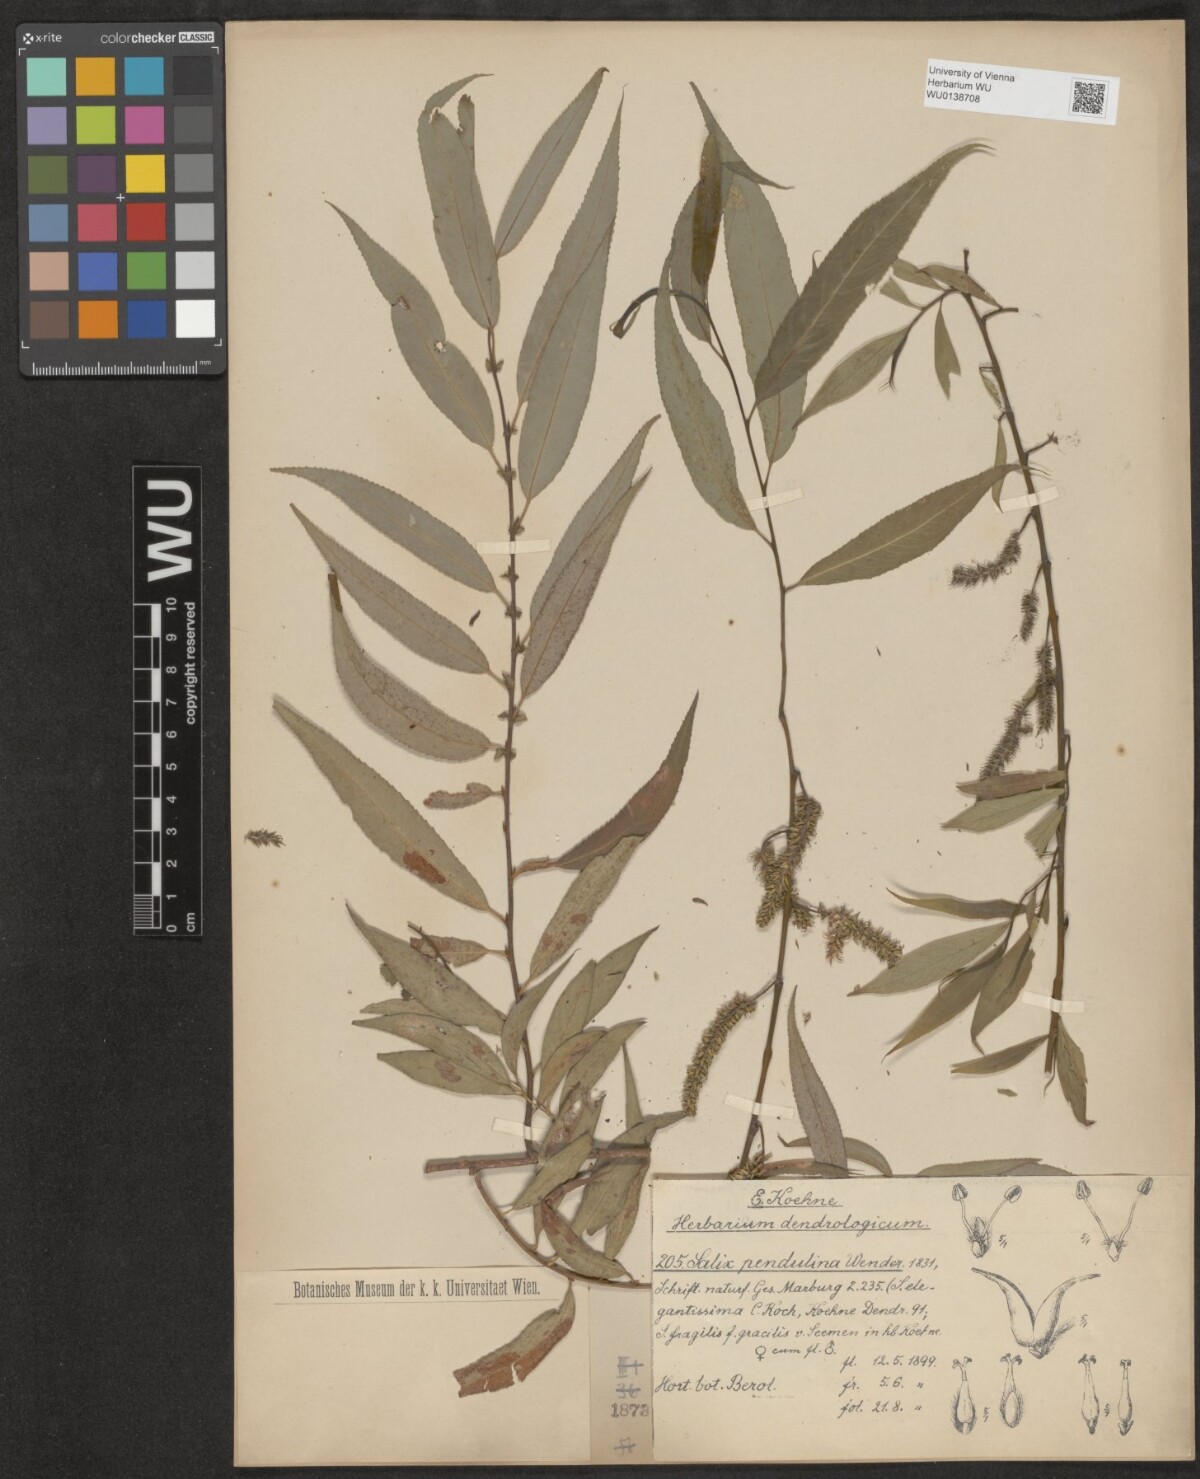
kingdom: Plantae
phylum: Tracheophyta
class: Magnoliopsida
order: Malpighiales
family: Salicaceae
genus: Salix
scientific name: Salix pendulina
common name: Wisconsin weeping willow
